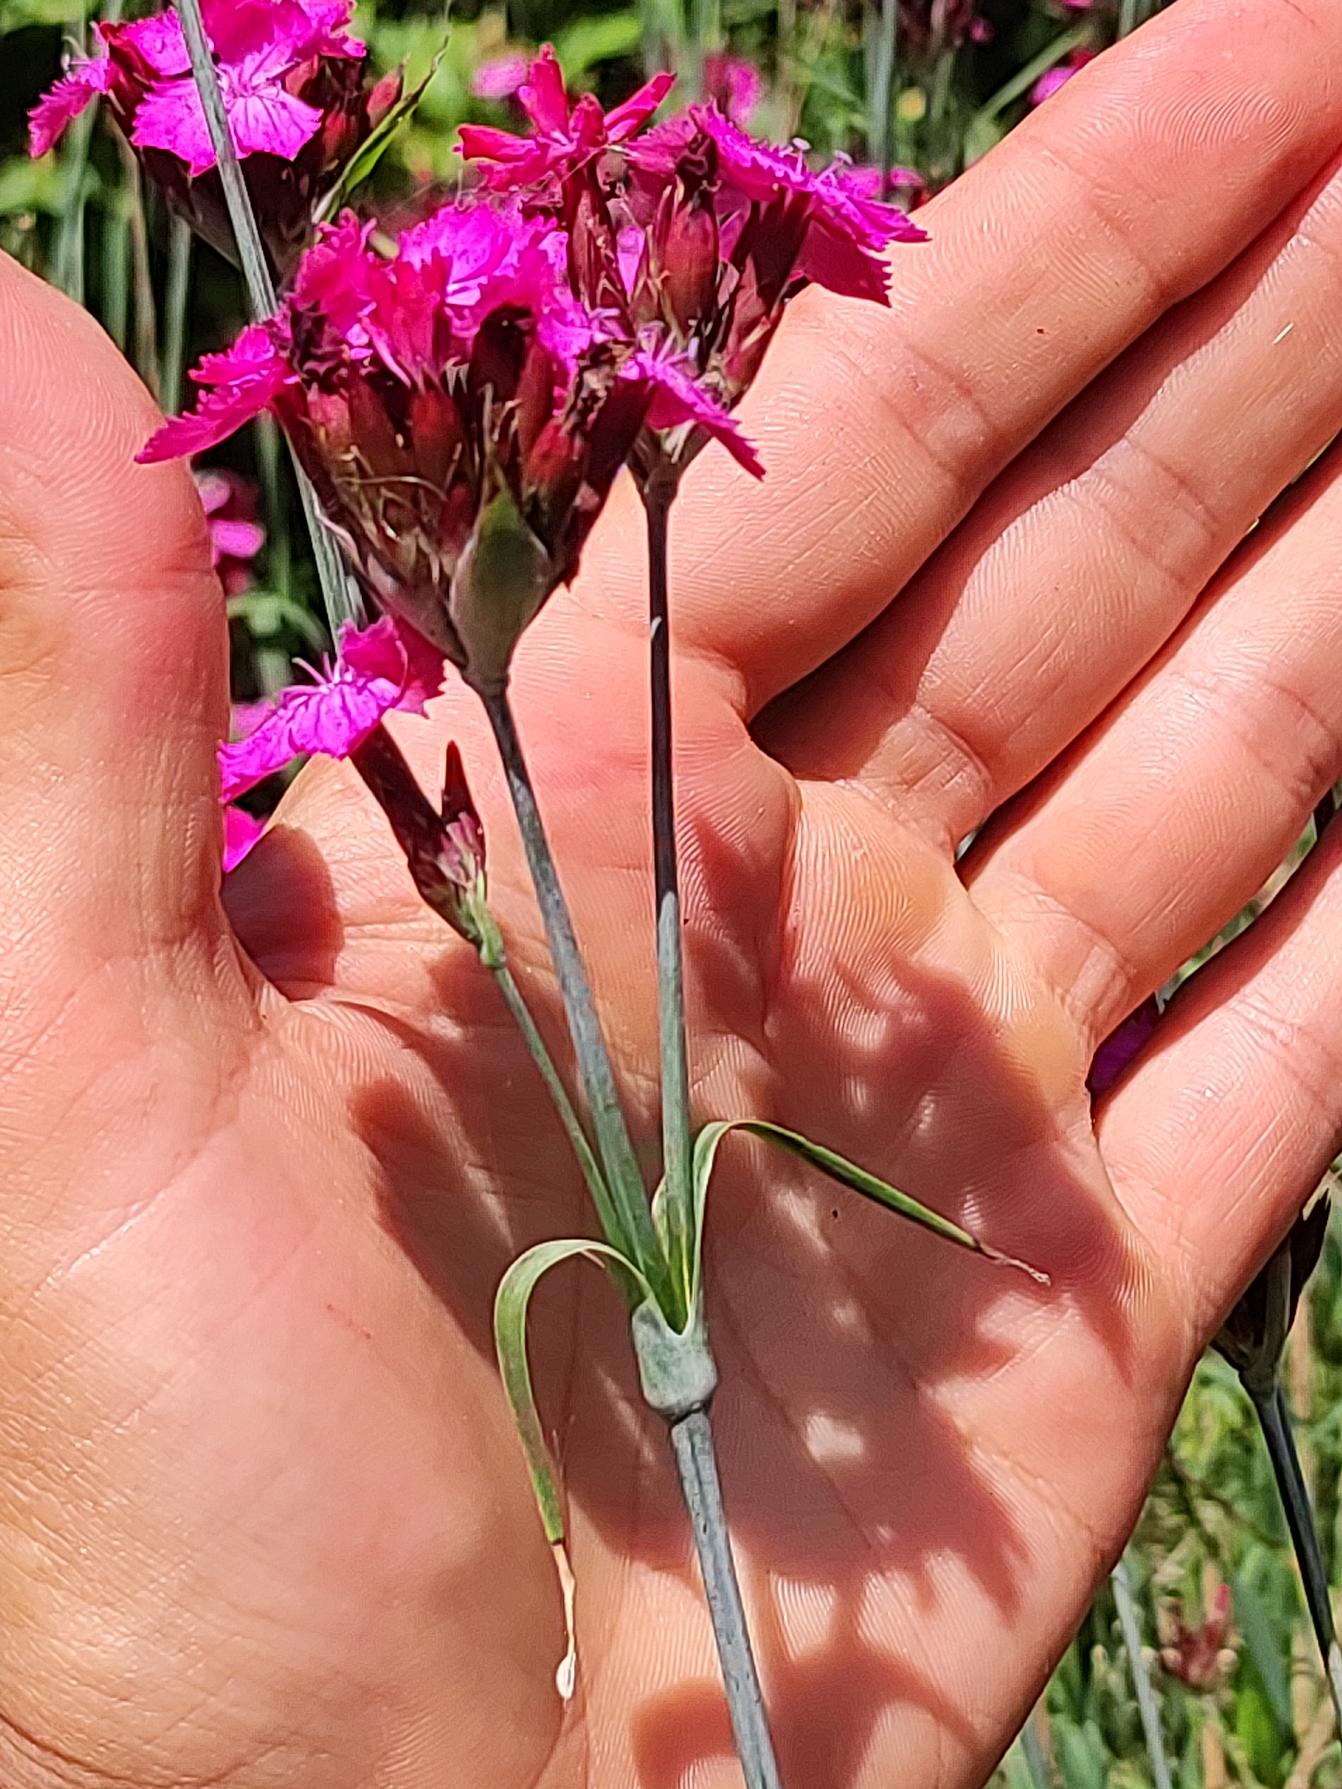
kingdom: Plantae
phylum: Tracheophyta
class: Magnoliopsida
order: Caryophyllales
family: Caryophyllaceae
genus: Dianthus
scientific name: Dianthus carthusianorum
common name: Karteuser-nellike
